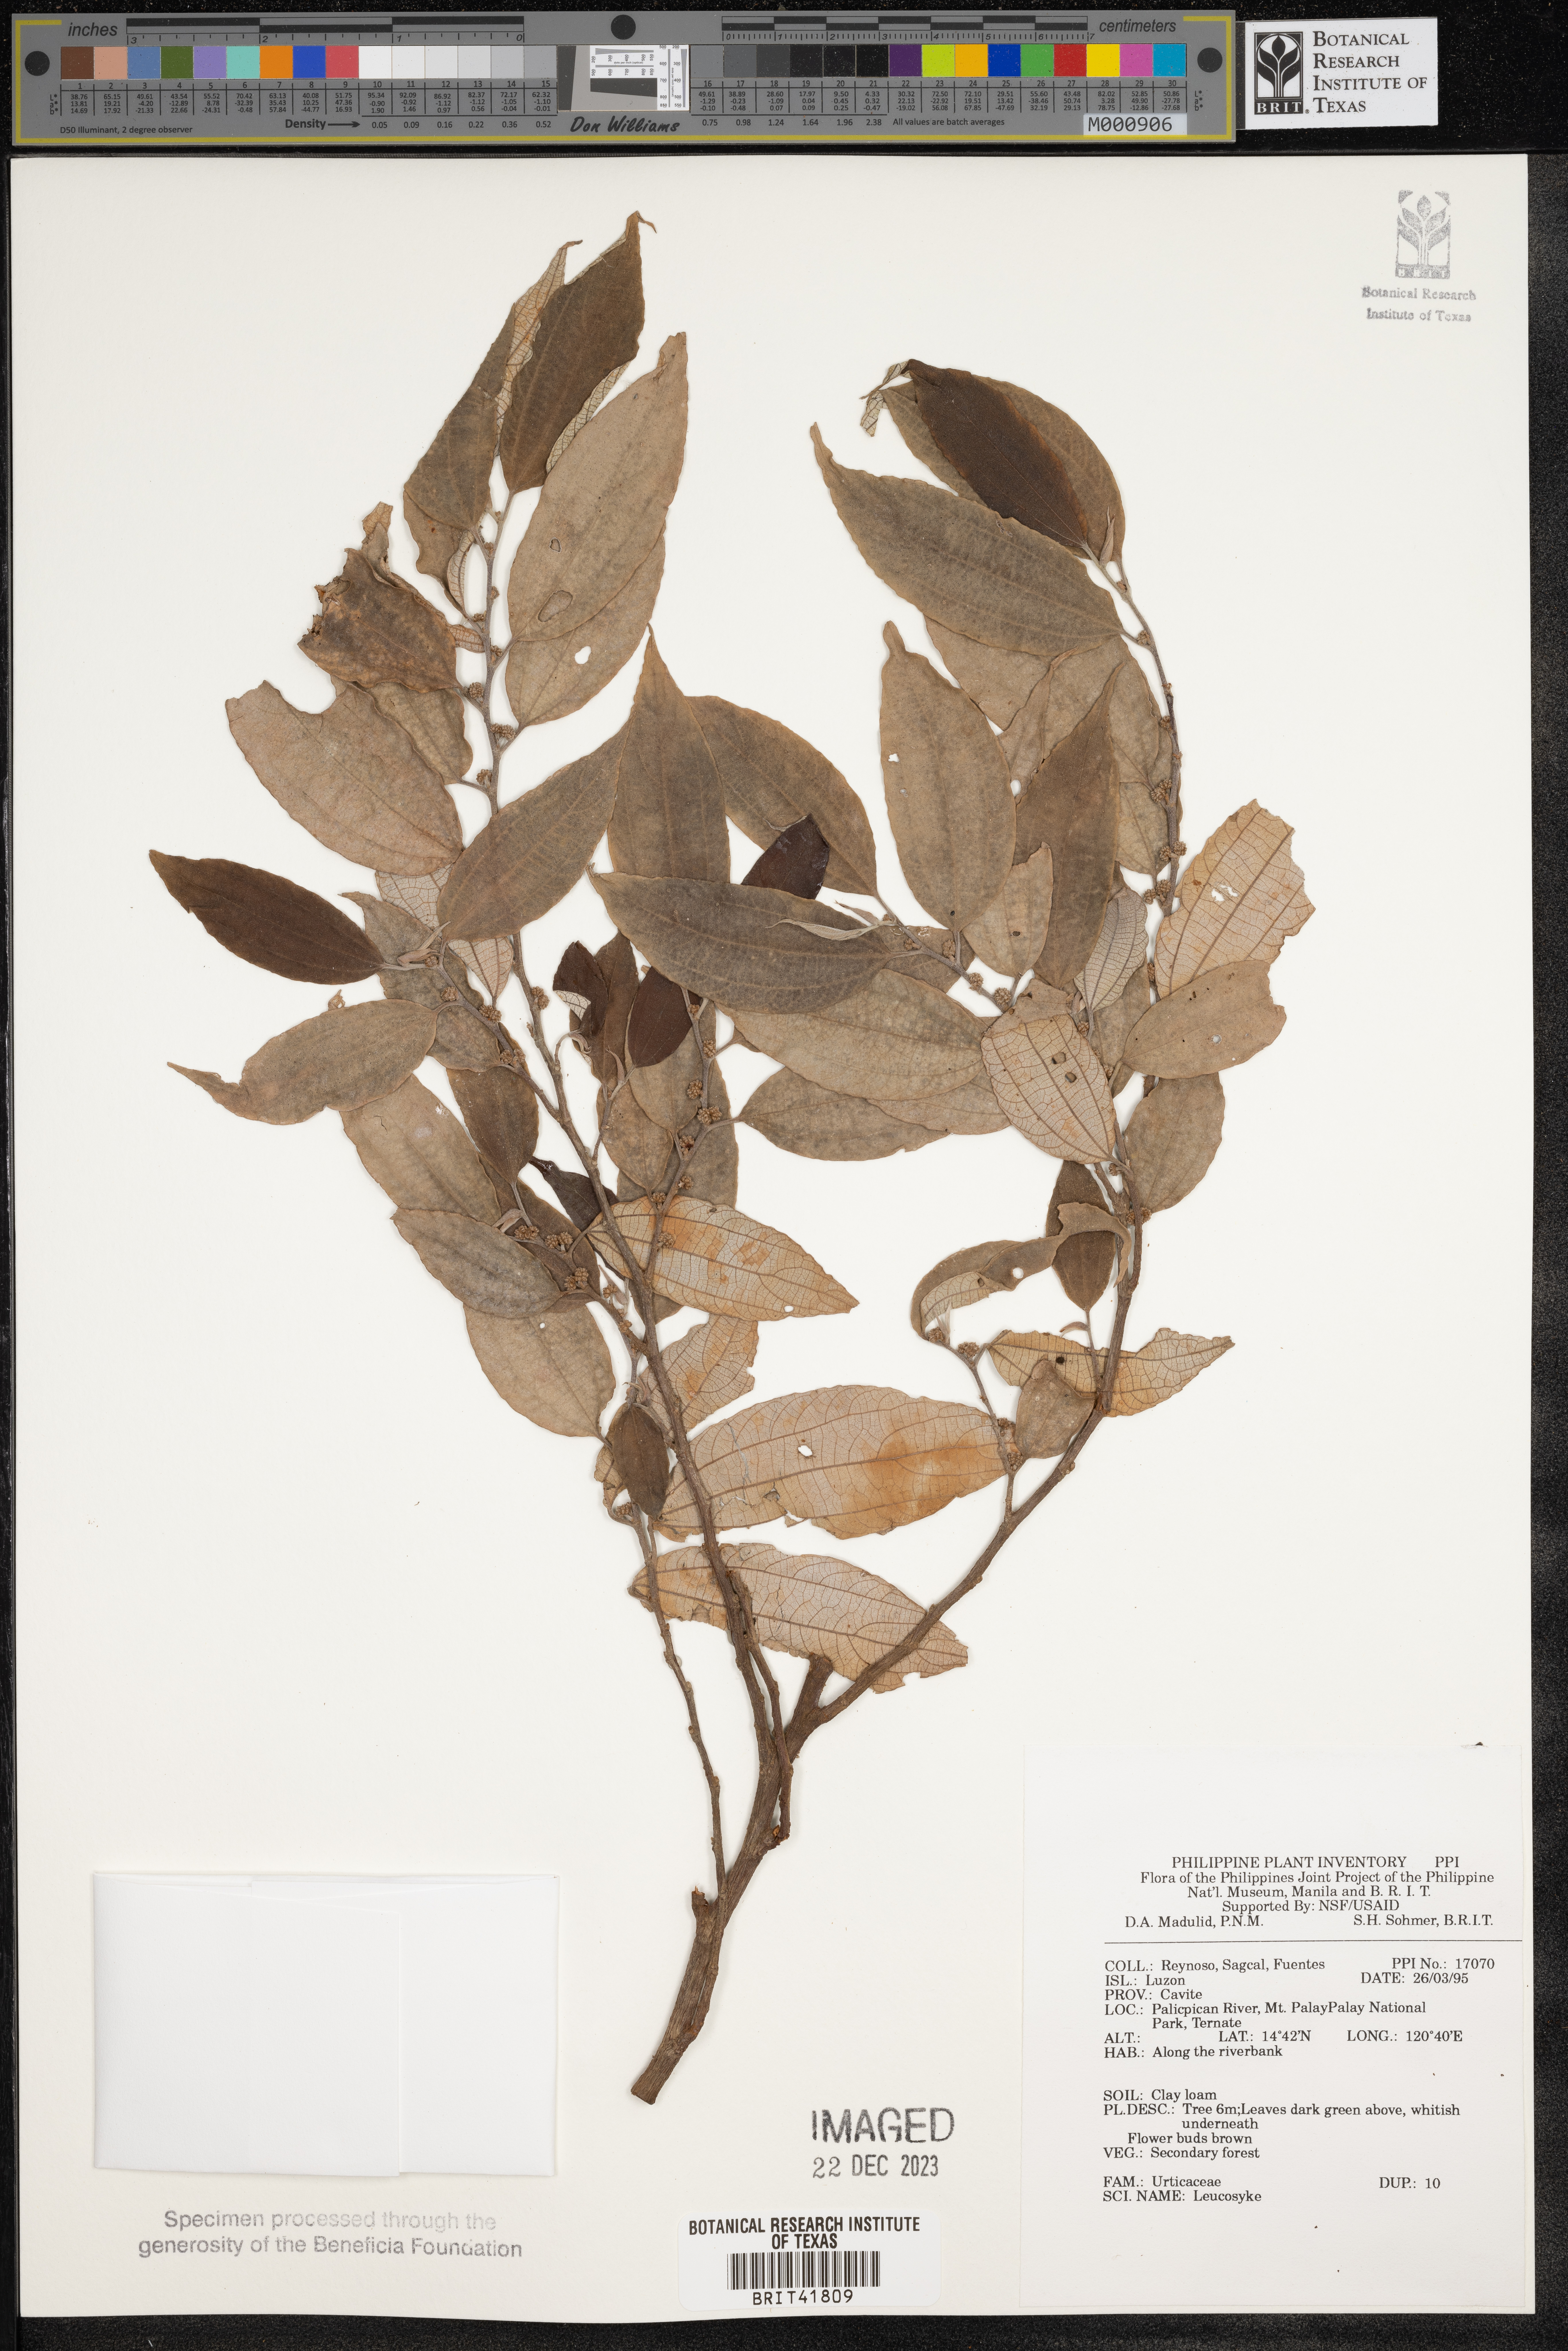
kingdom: Plantae
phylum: Tracheophyta
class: Magnoliopsida
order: Rosales
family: Urticaceae
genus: Leucosyke
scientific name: Leucosyke
